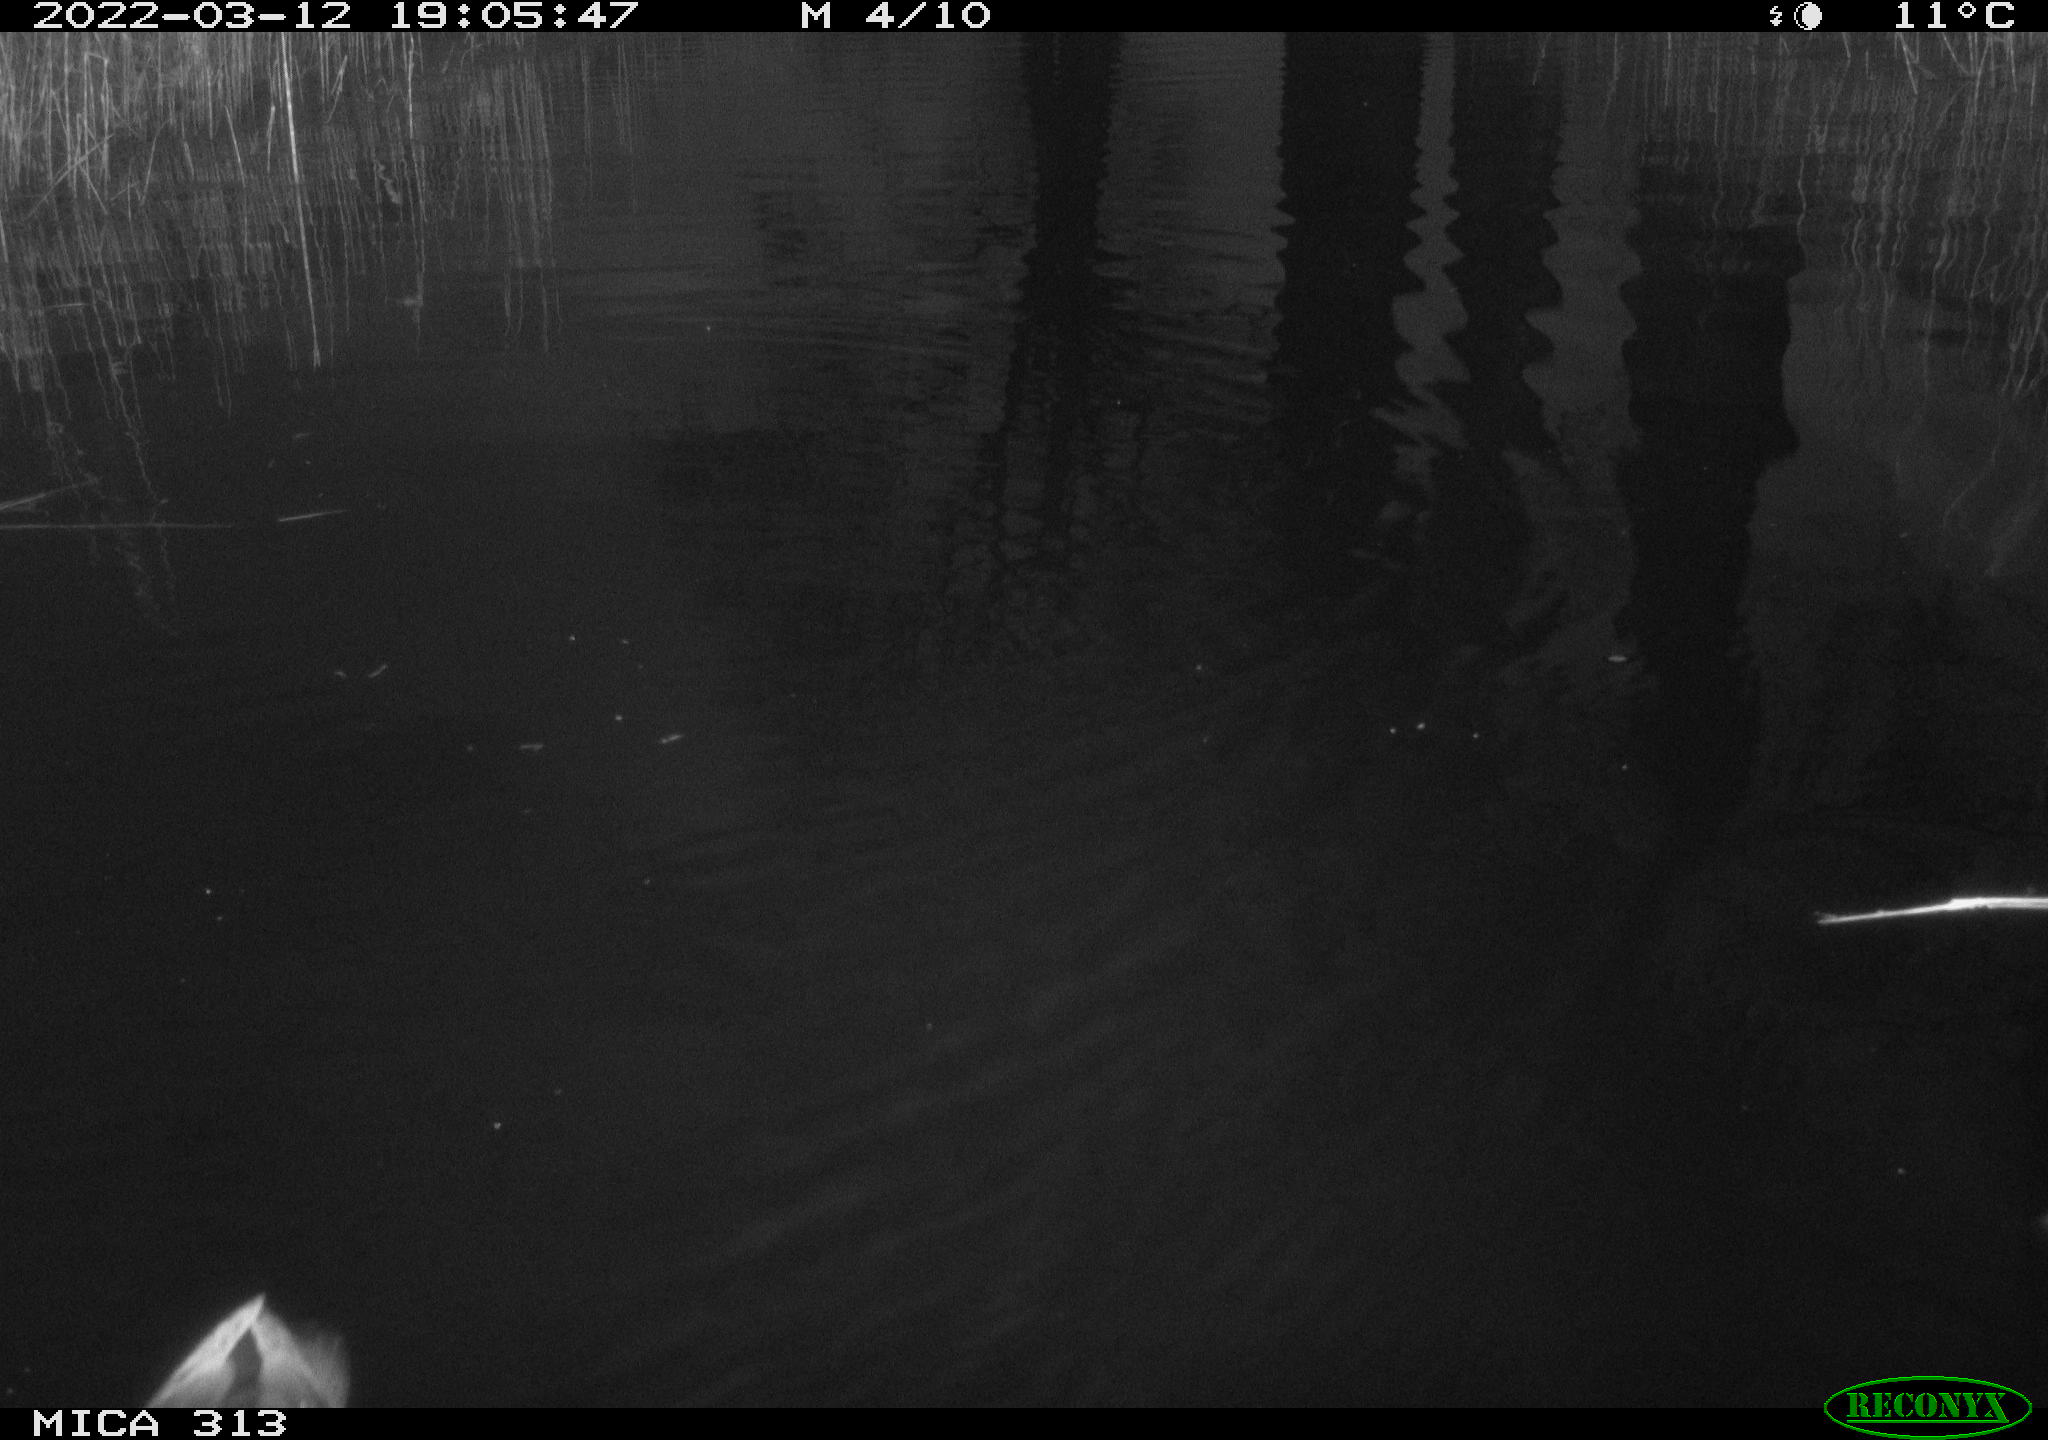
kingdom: Animalia
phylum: Chordata
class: Aves
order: Gruiformes
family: Rallidae
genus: Gallinula
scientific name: Gallinula chloropus
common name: Common moorhen
